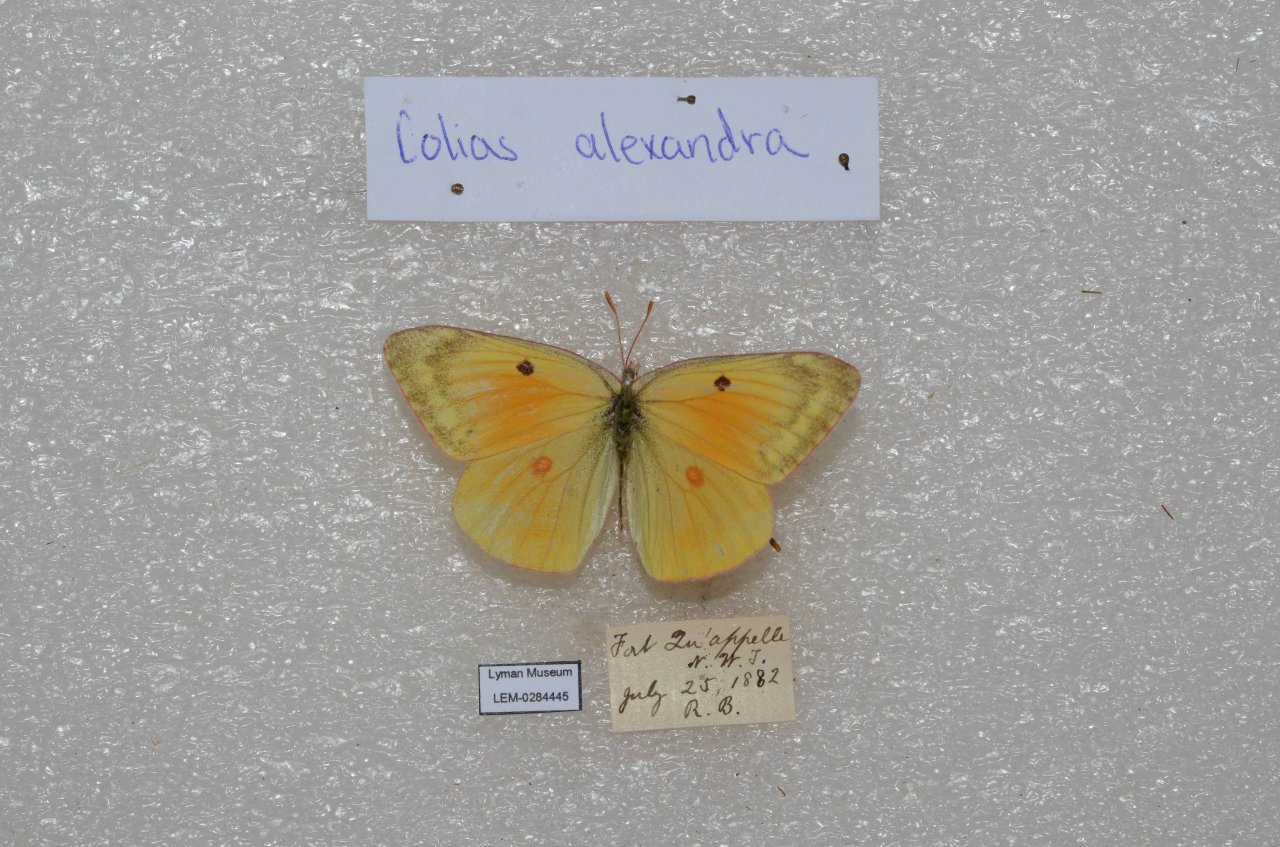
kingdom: Animalia
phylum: Arthropoda
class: Insecta
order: Lepidoptera
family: Pieridae
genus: Colias
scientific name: Colias christina
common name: Christina Sulphur
